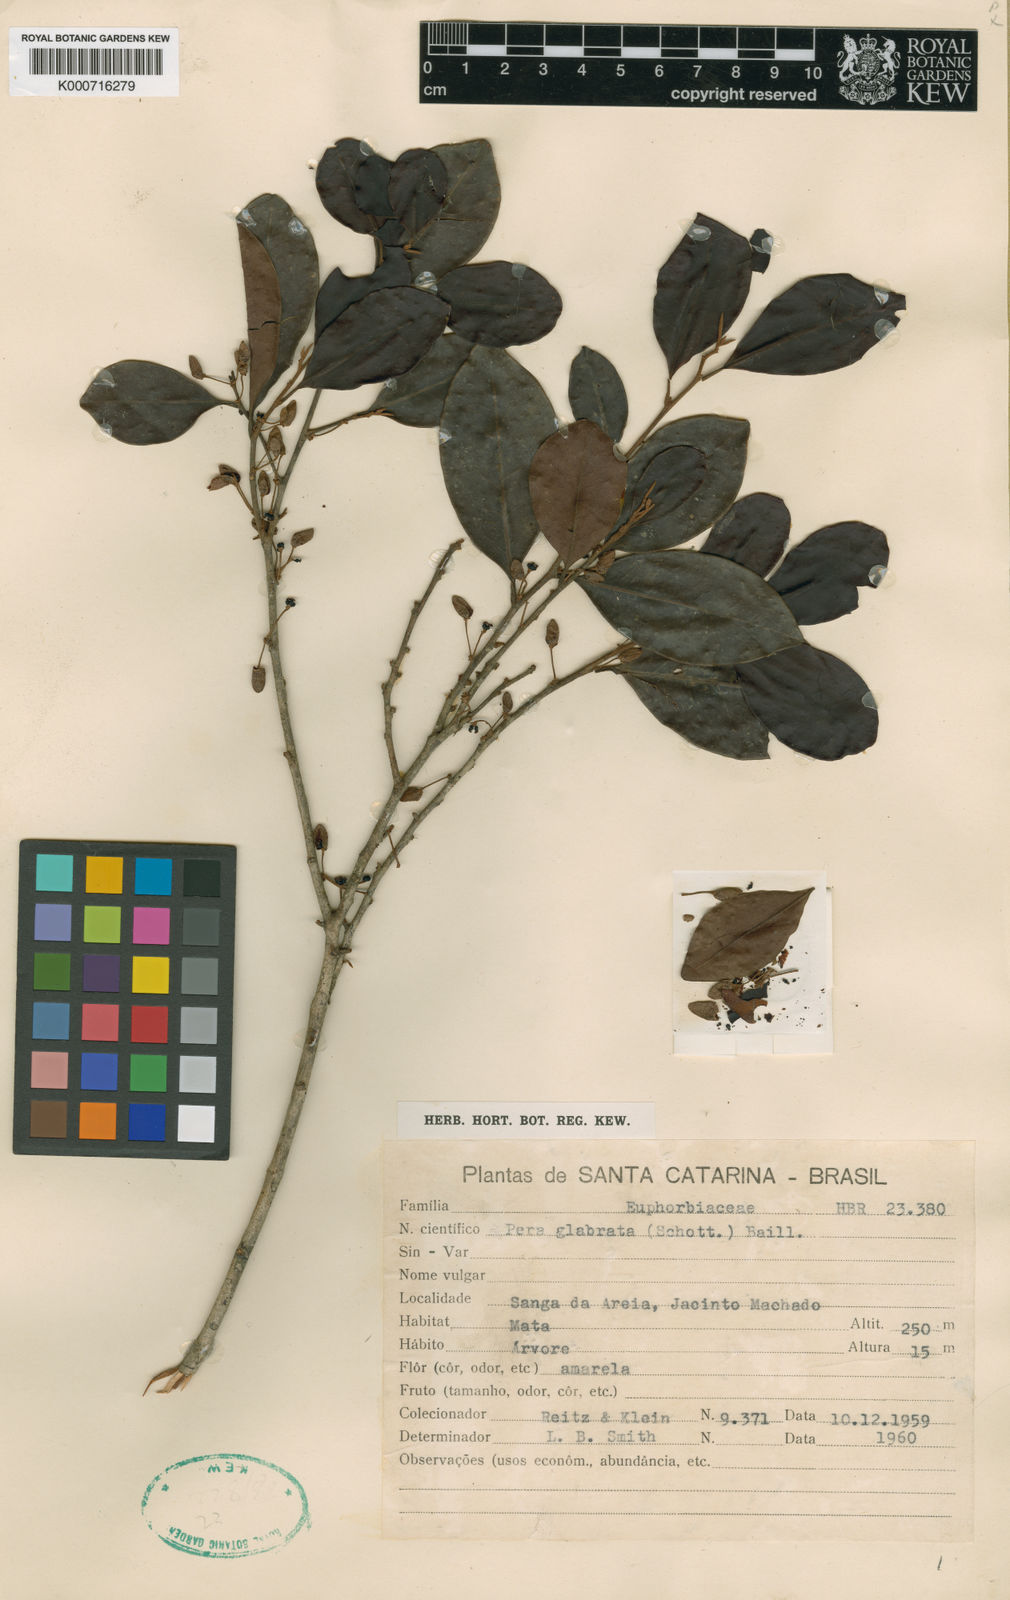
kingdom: Plantae
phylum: Tracheophyta
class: Magnoliopsida
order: Malpighiales
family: Peraceae
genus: Pera
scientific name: Pera glabrata
